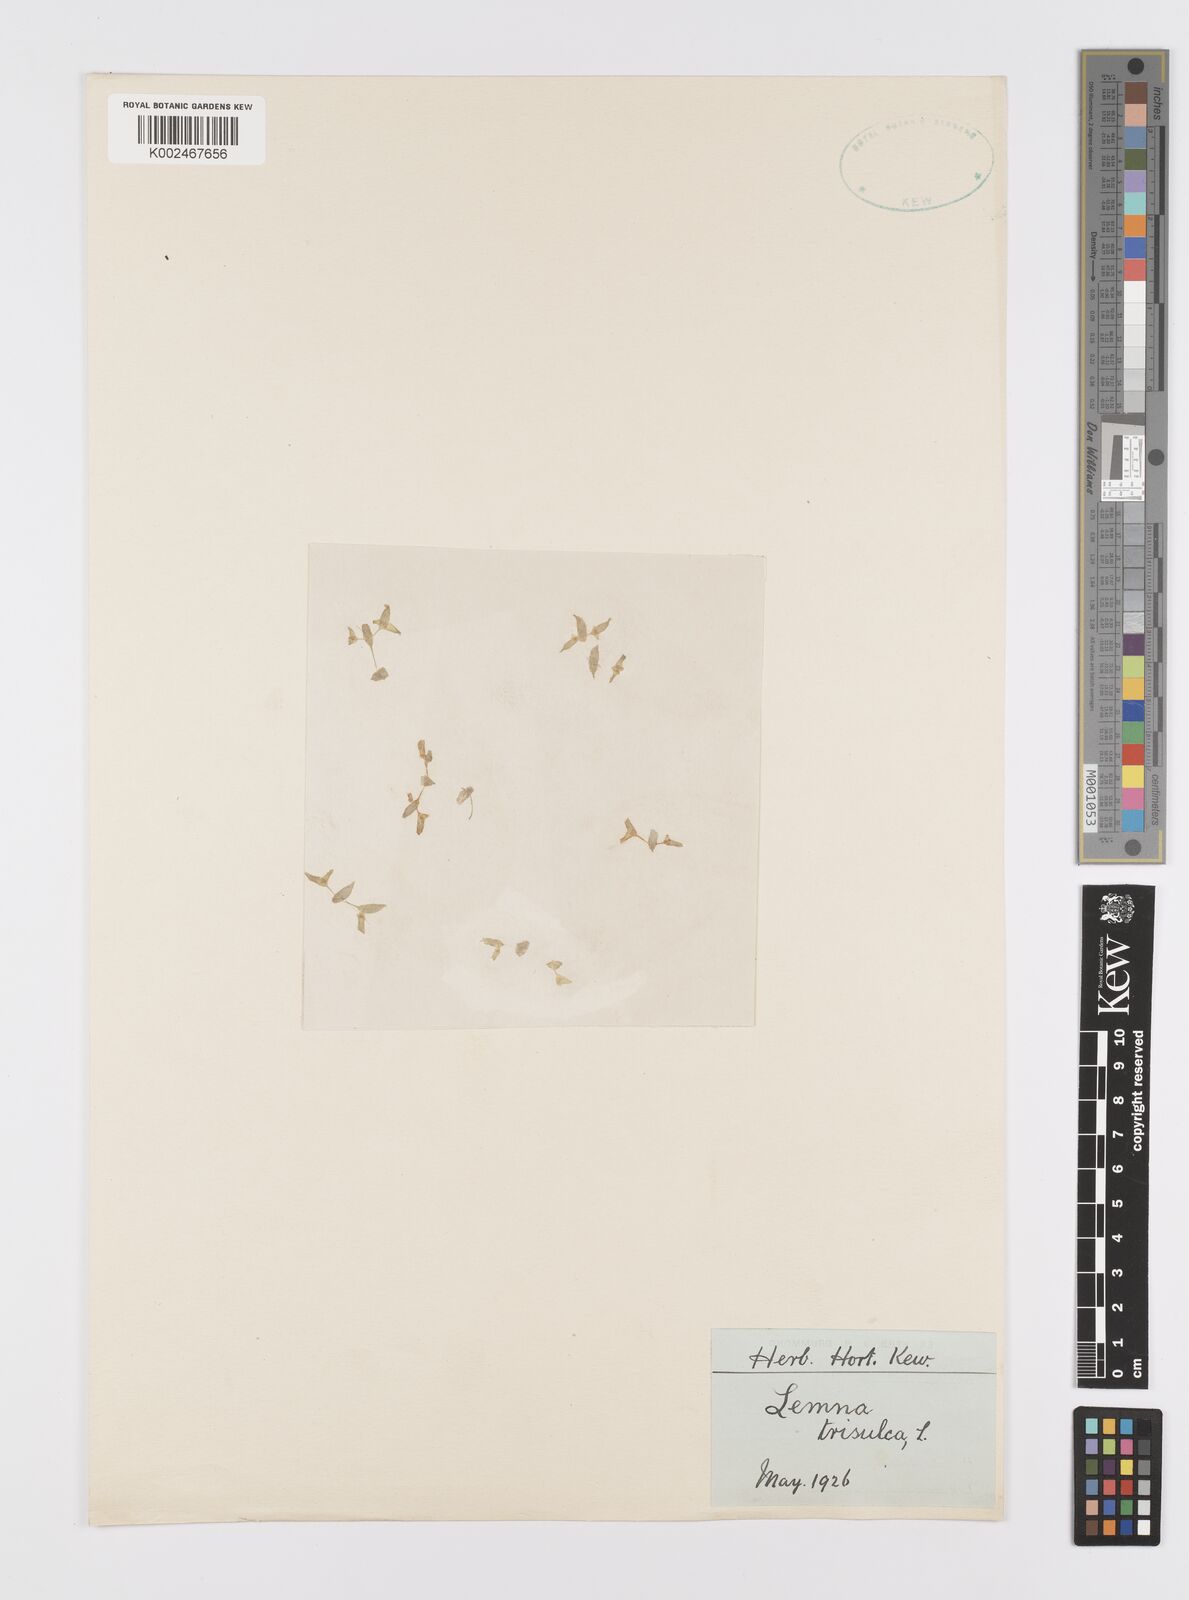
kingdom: Plantae
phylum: Tracheophyta
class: Liliopsida
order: Alismatales
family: Araceae
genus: Lemna
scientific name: Lemna trisulca
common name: Ivy-leaved duckweed
